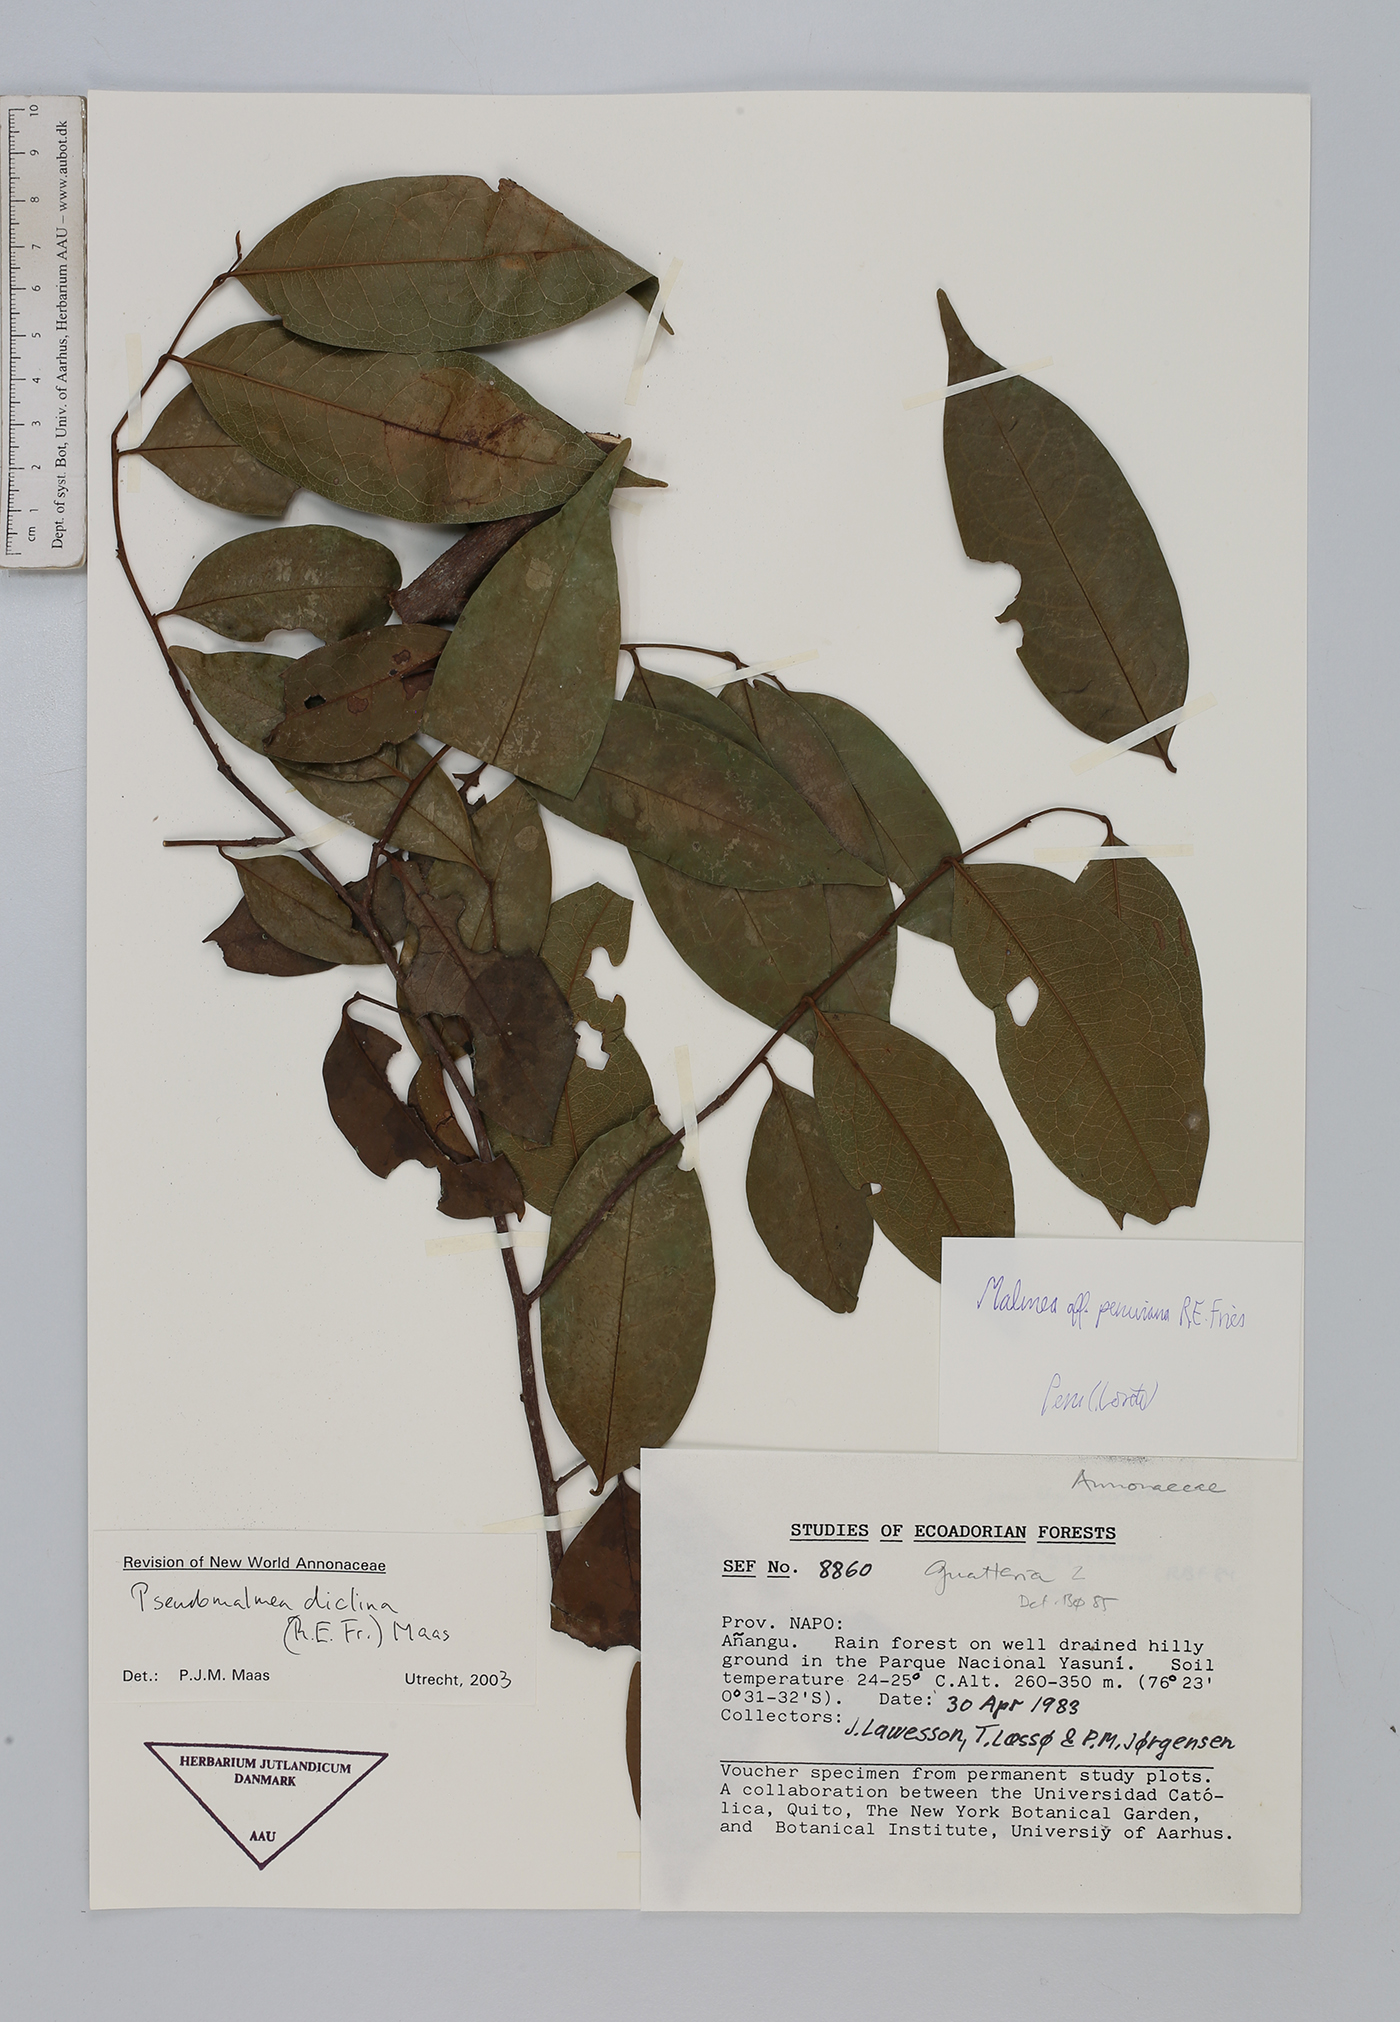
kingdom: Plantae
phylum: Tracheophyta
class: Magnoliopsida
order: Magnoliales
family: Annonaceae
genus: Pseudomalmea
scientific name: Pseudomalmea diclina
